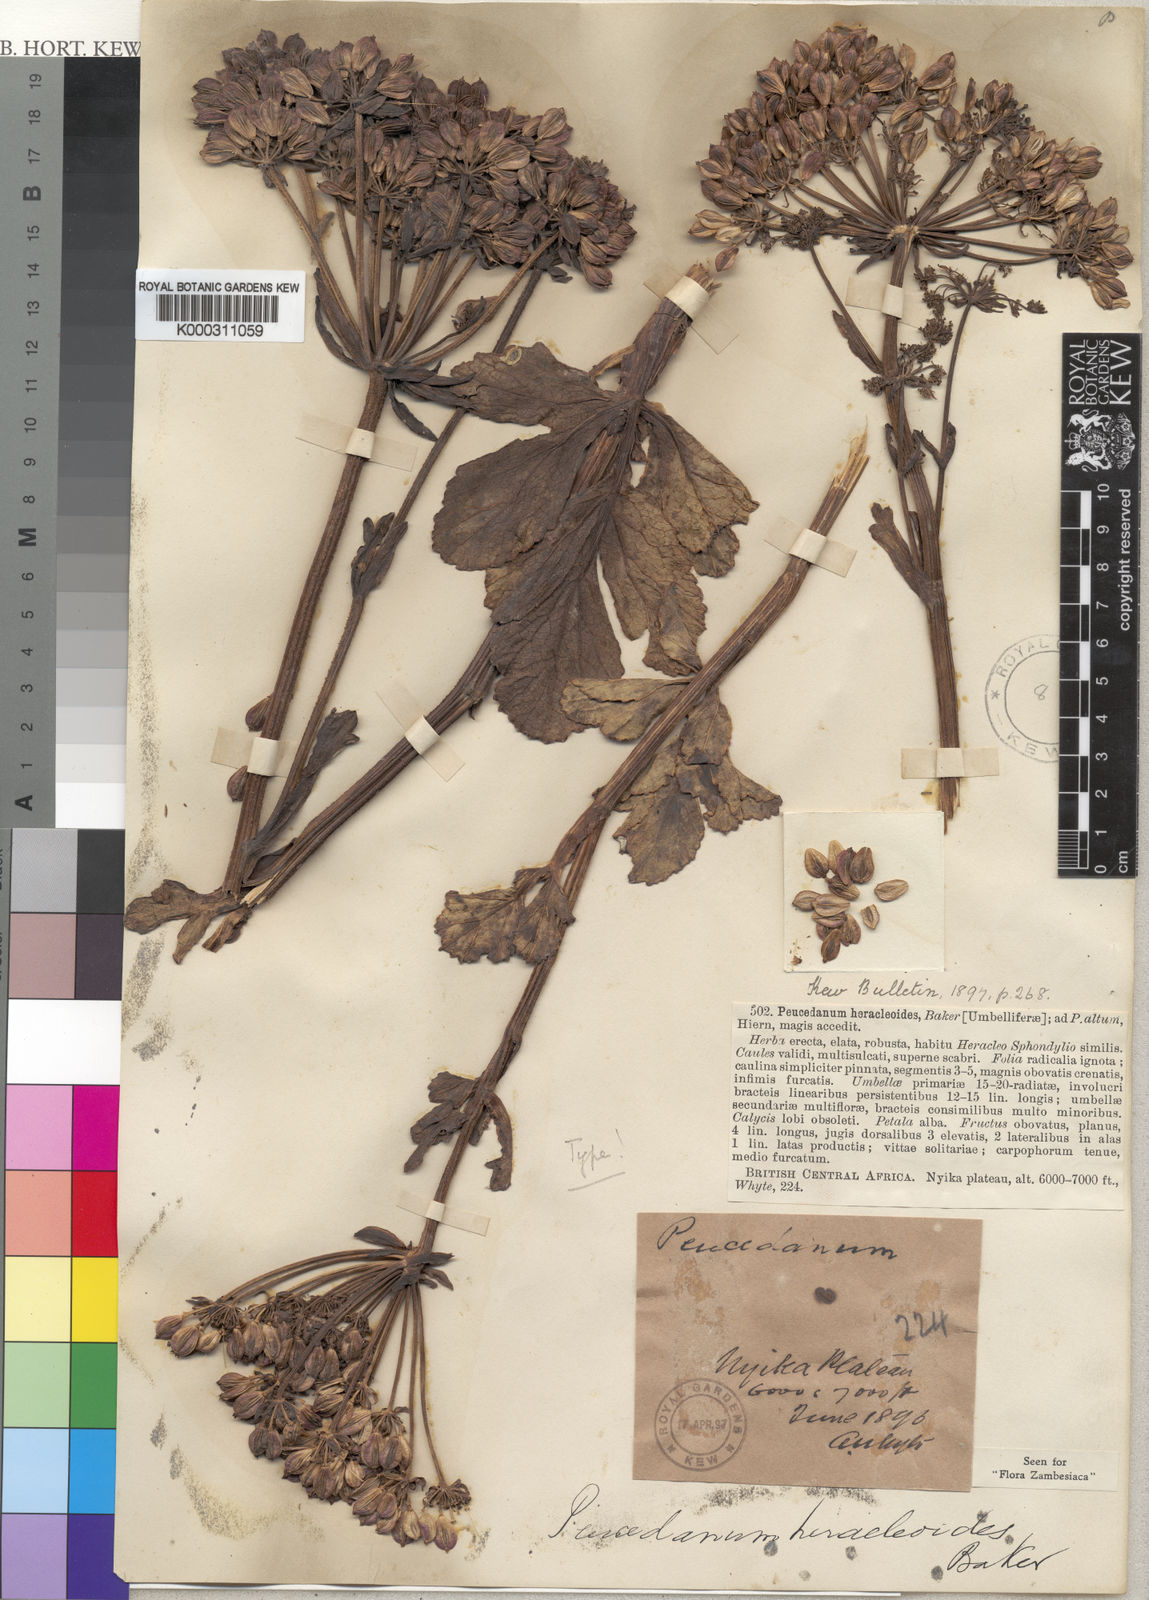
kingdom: Plantae
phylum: Tracheophyta
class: Magnoliopsida
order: Apiales
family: Apiaceae
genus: Physotrichia
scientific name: Physotrichia
